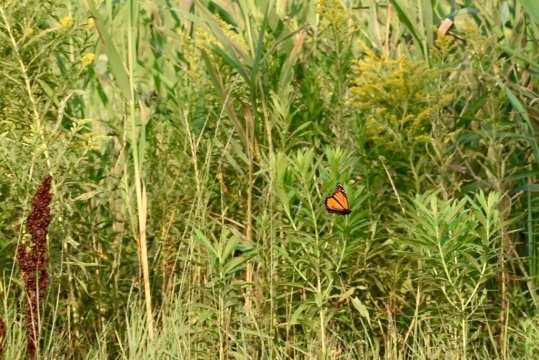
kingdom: Animalia
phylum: Arthropoda
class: Insecta
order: Lepidoptera
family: Nymphalidae
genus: Danaus
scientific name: Danaus plexippus
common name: Monarch
